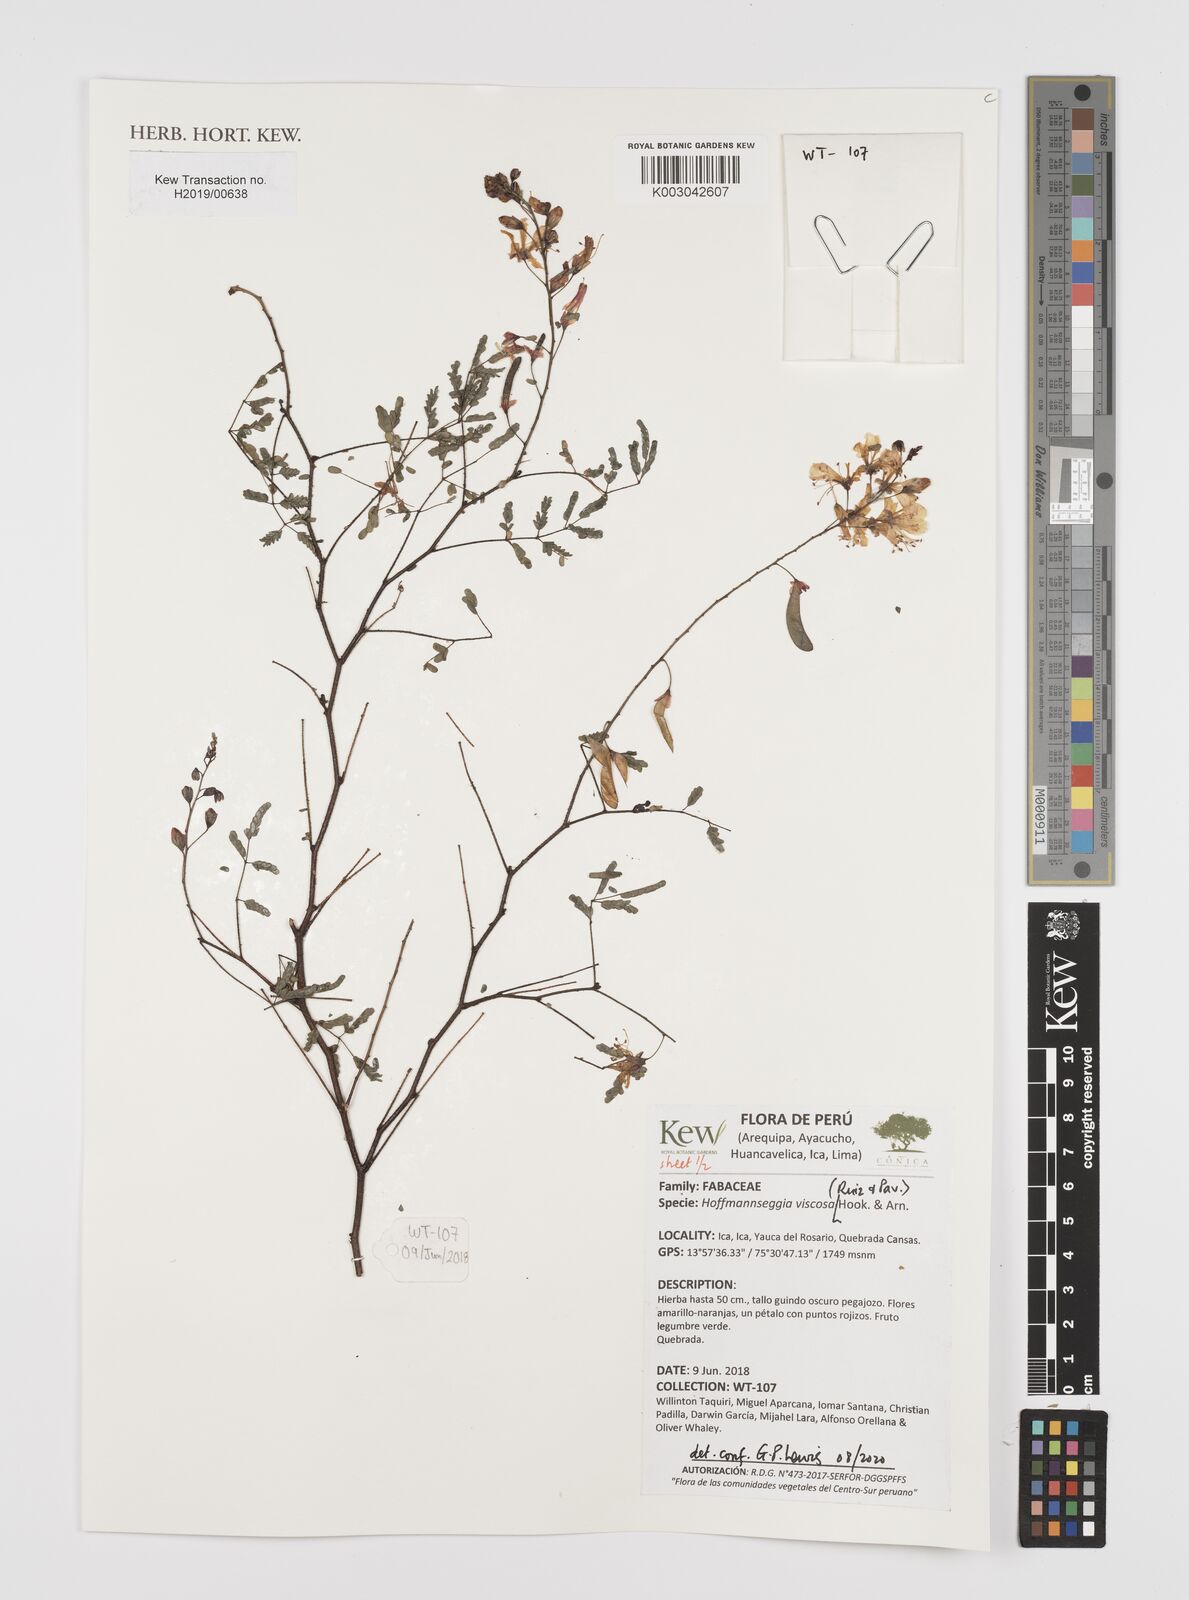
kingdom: Plantae
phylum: Tracheophyta
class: Magnoliopsida
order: Fabales
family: Fabaceae
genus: Hoffmannseggia
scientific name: Hoffmannseggia viscosa
